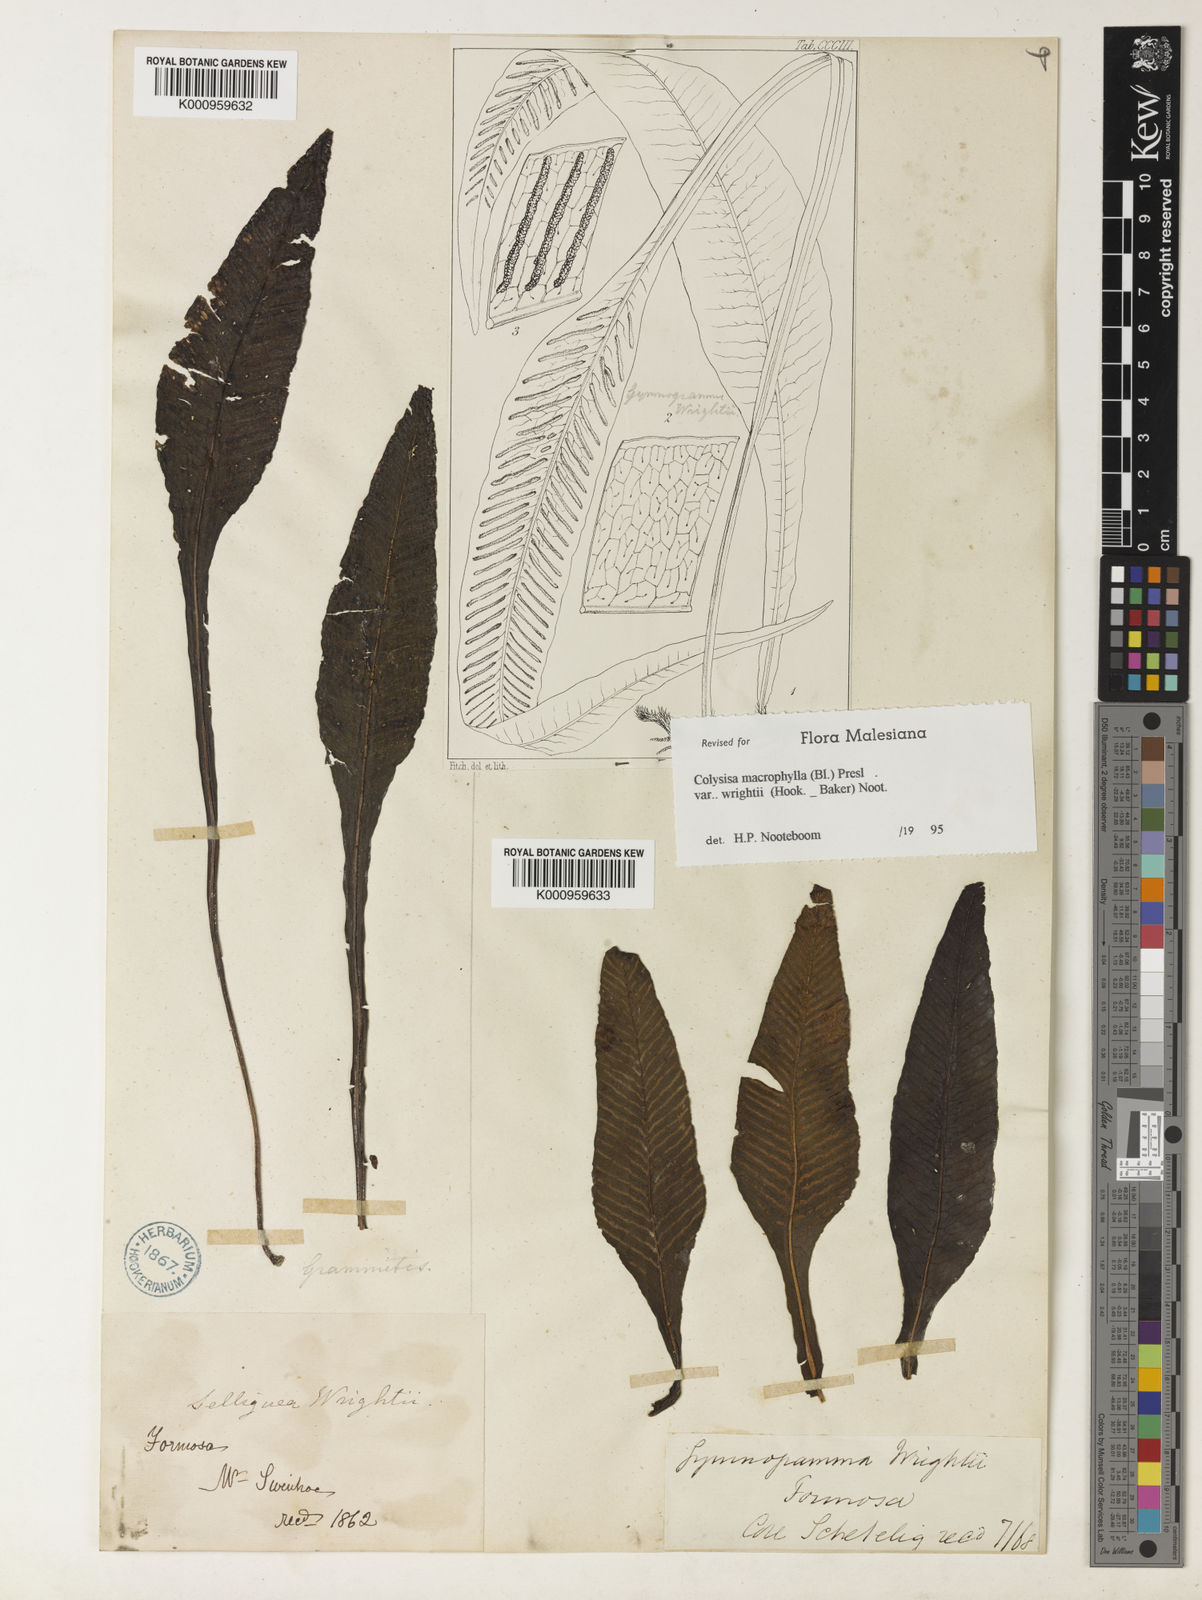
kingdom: Plantae
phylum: Tracheophyta
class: Polypodiopsida
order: Polypodiales
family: Polypodiaceae
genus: Leptochilus
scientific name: Leptochilus wrightii
